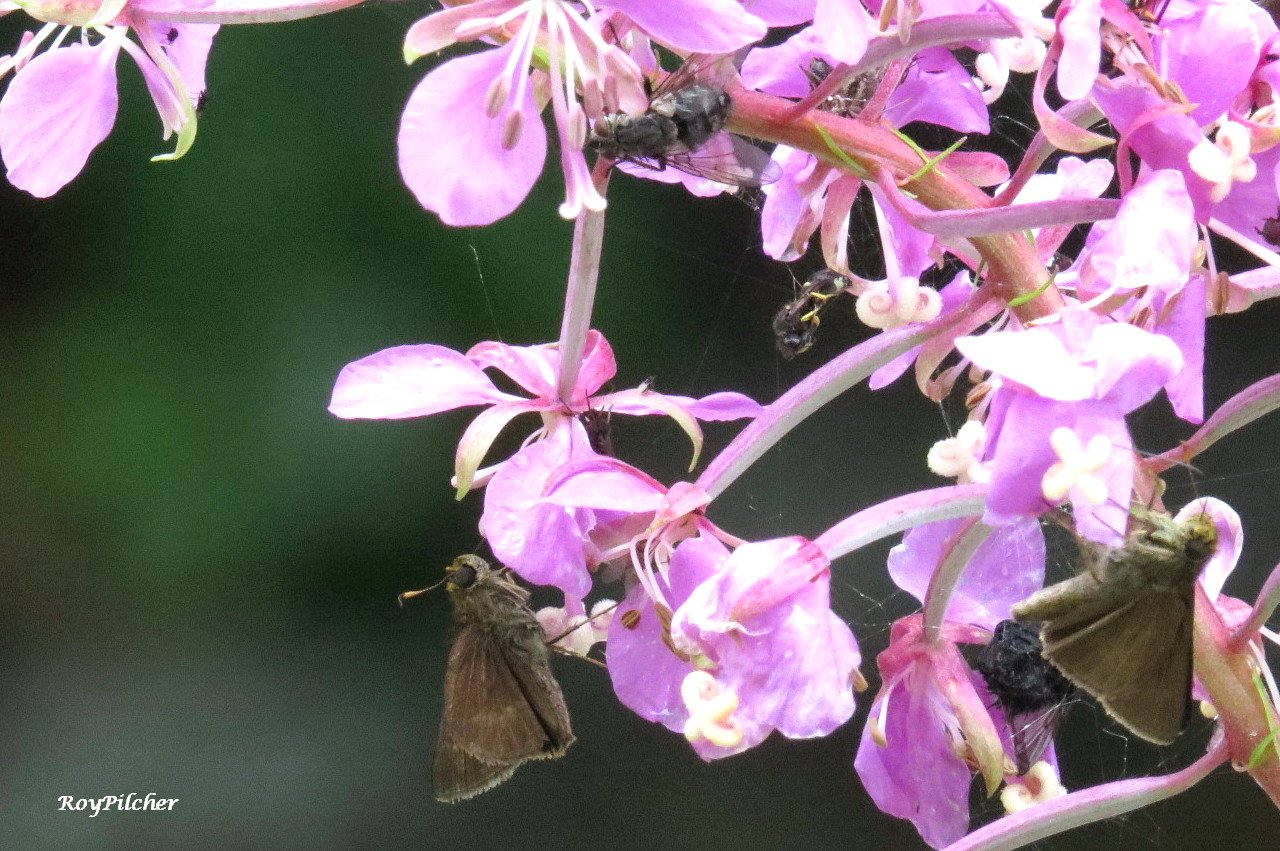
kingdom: Animalia
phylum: Arthropoda
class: Insecta
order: Lepidoptera
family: Hesperiidae
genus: Vernia
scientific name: Vernia verna
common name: Little Glassywing
